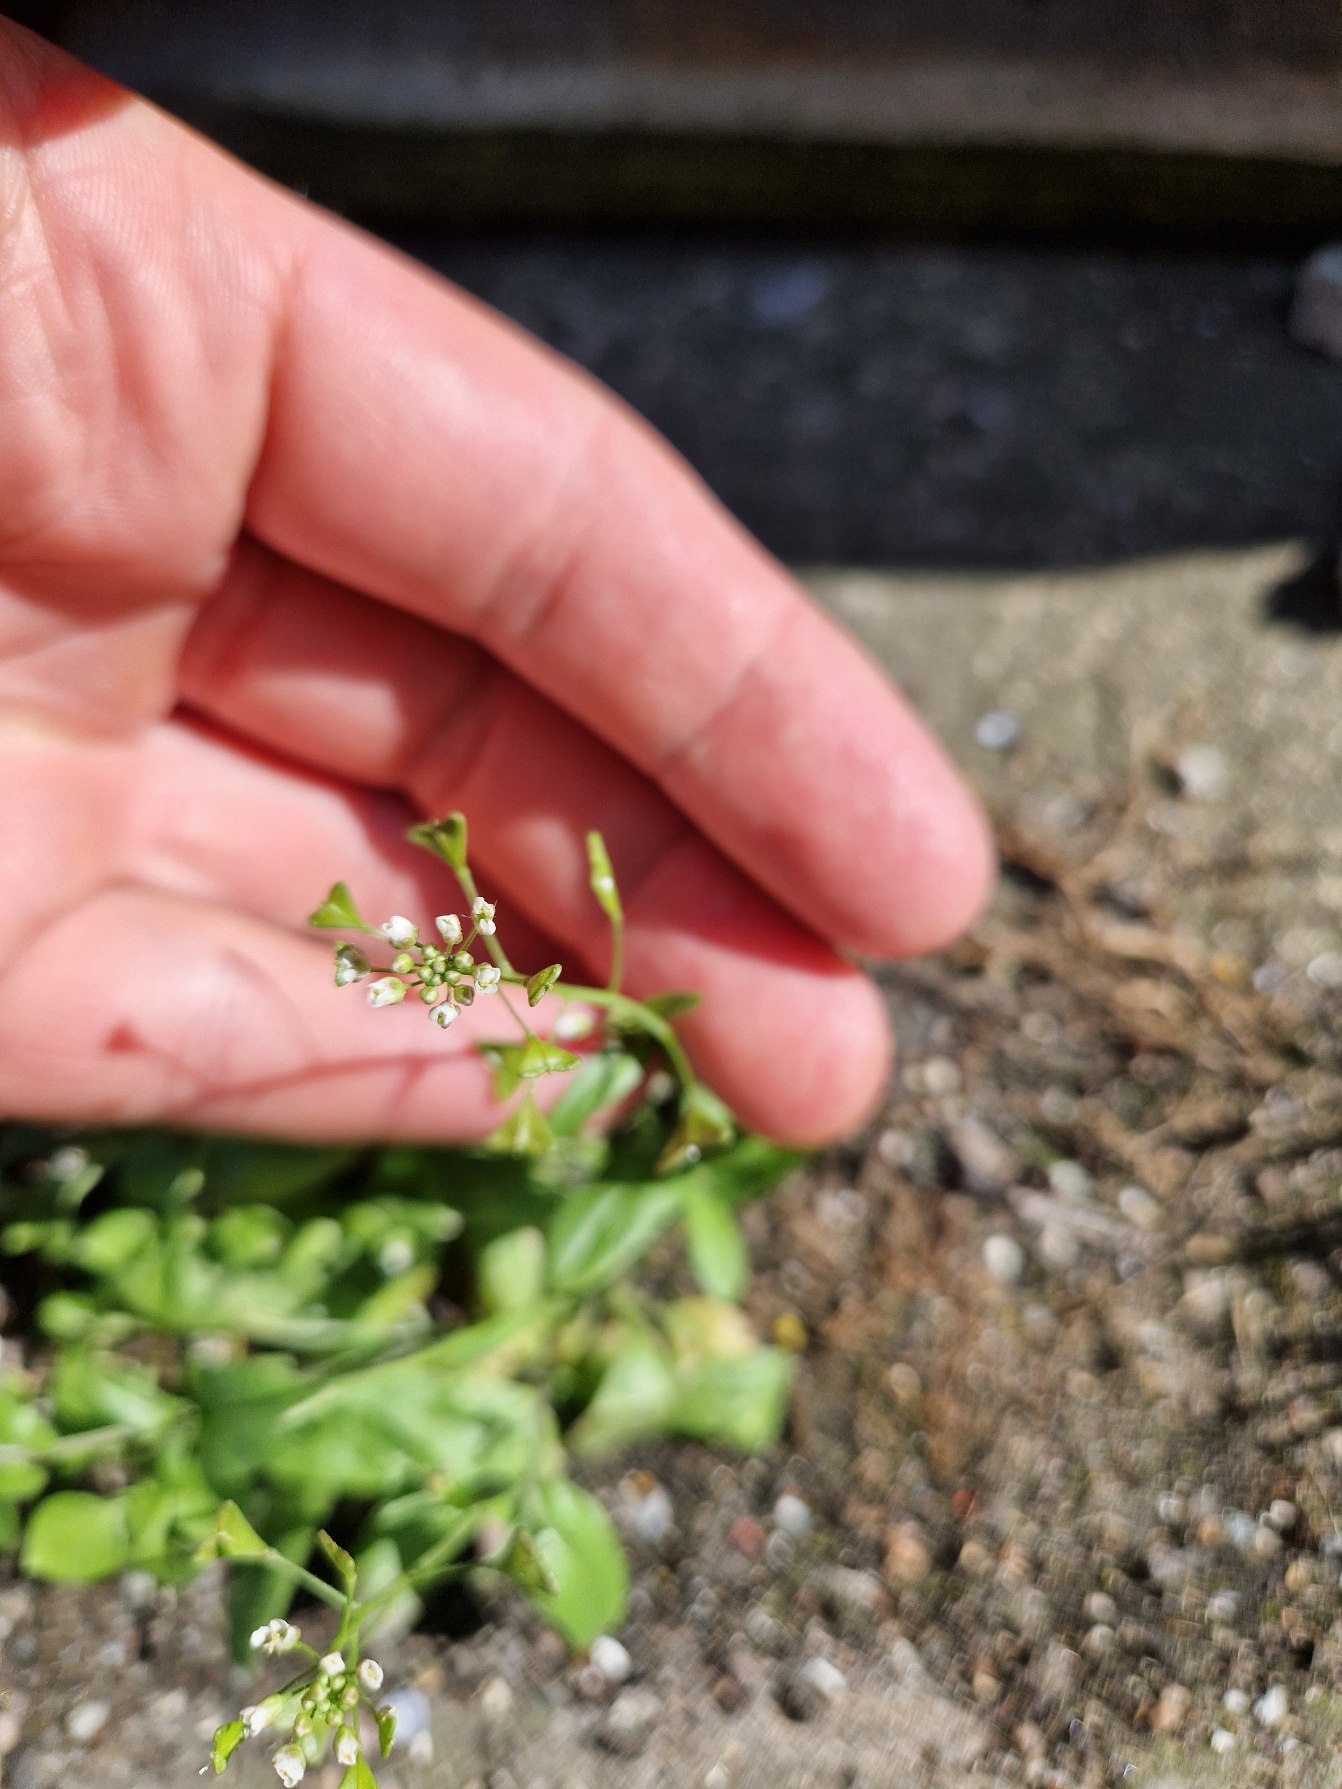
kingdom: Plantae
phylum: Tracheophyta
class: Magnoliopsida
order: Brassicales
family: Brassicaceae
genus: Capsella
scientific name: Capsella bursa-pastoris
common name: Hyrdetaske
